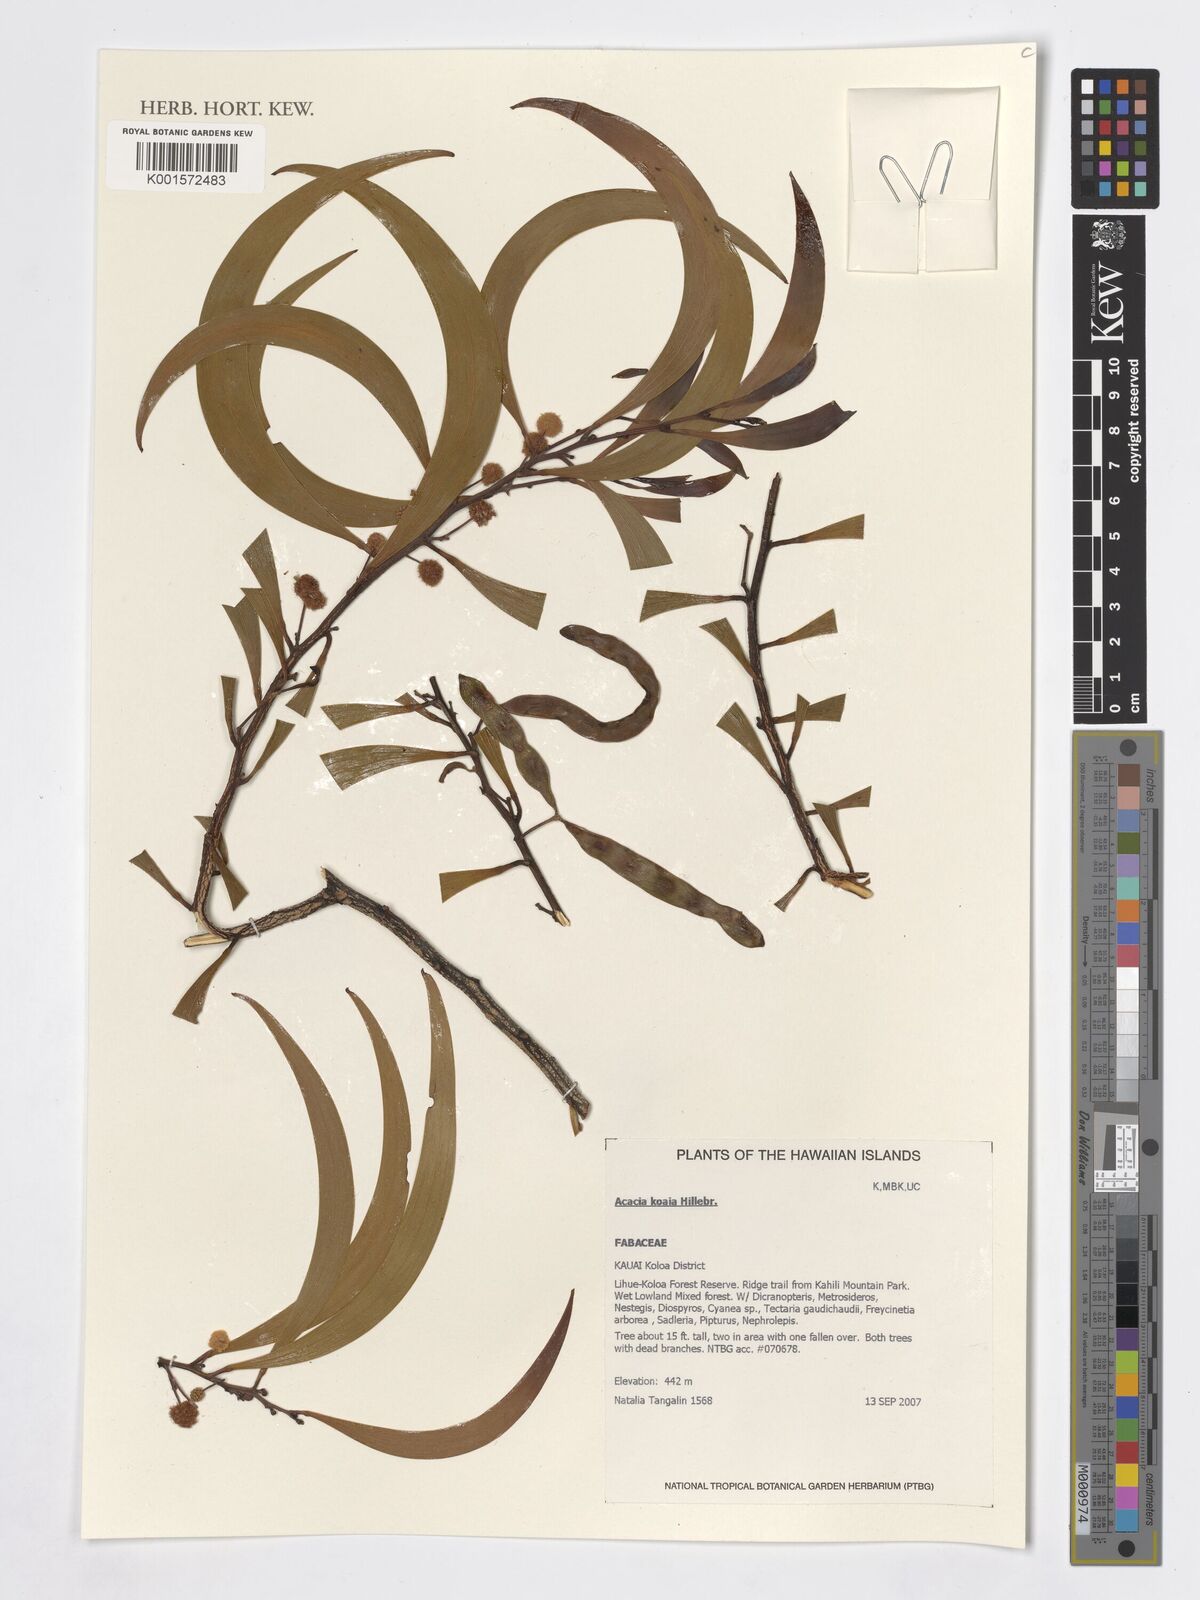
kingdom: Plantae
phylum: Tracheophyta
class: Magnoliopsida
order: Fabales
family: Fabaceae
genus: Acacia
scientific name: Acacia koa
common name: Gray koa
